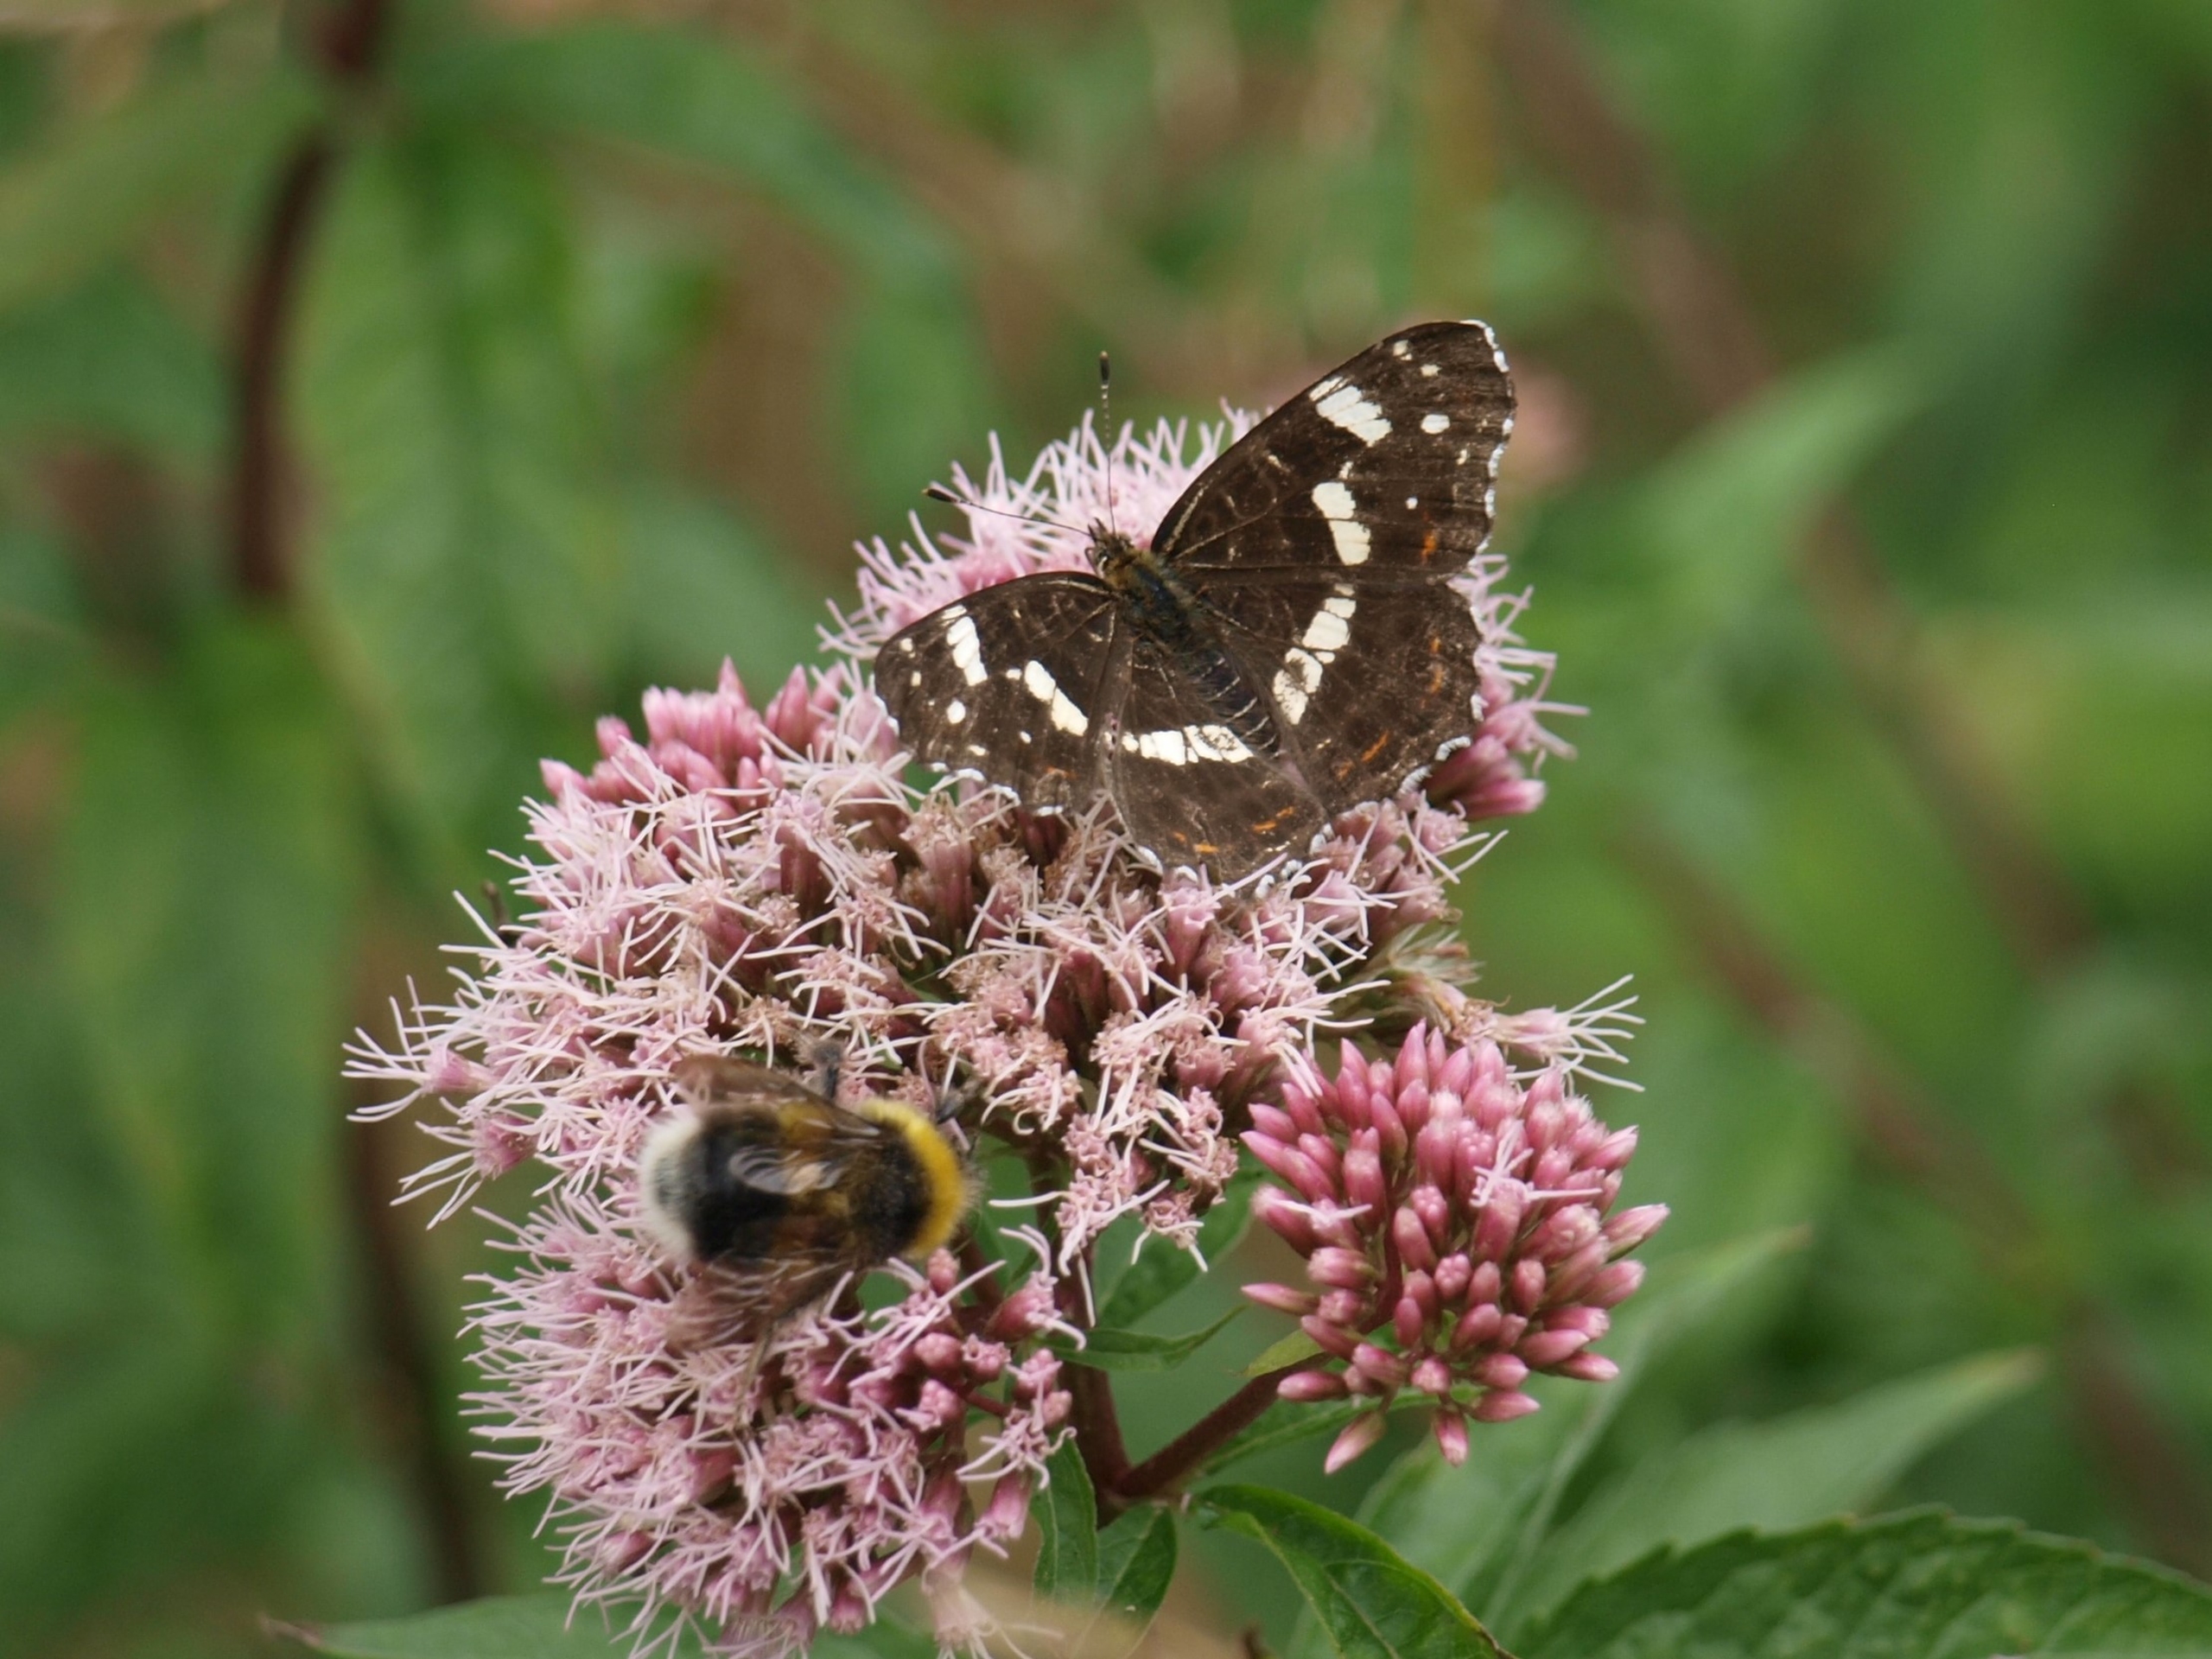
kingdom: Animalia
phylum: Arthropoda
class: Insecta
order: Lepidoptera
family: Nymphalidae
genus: Araschnia
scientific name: Araschnia levana
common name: Nældesommerfugl
